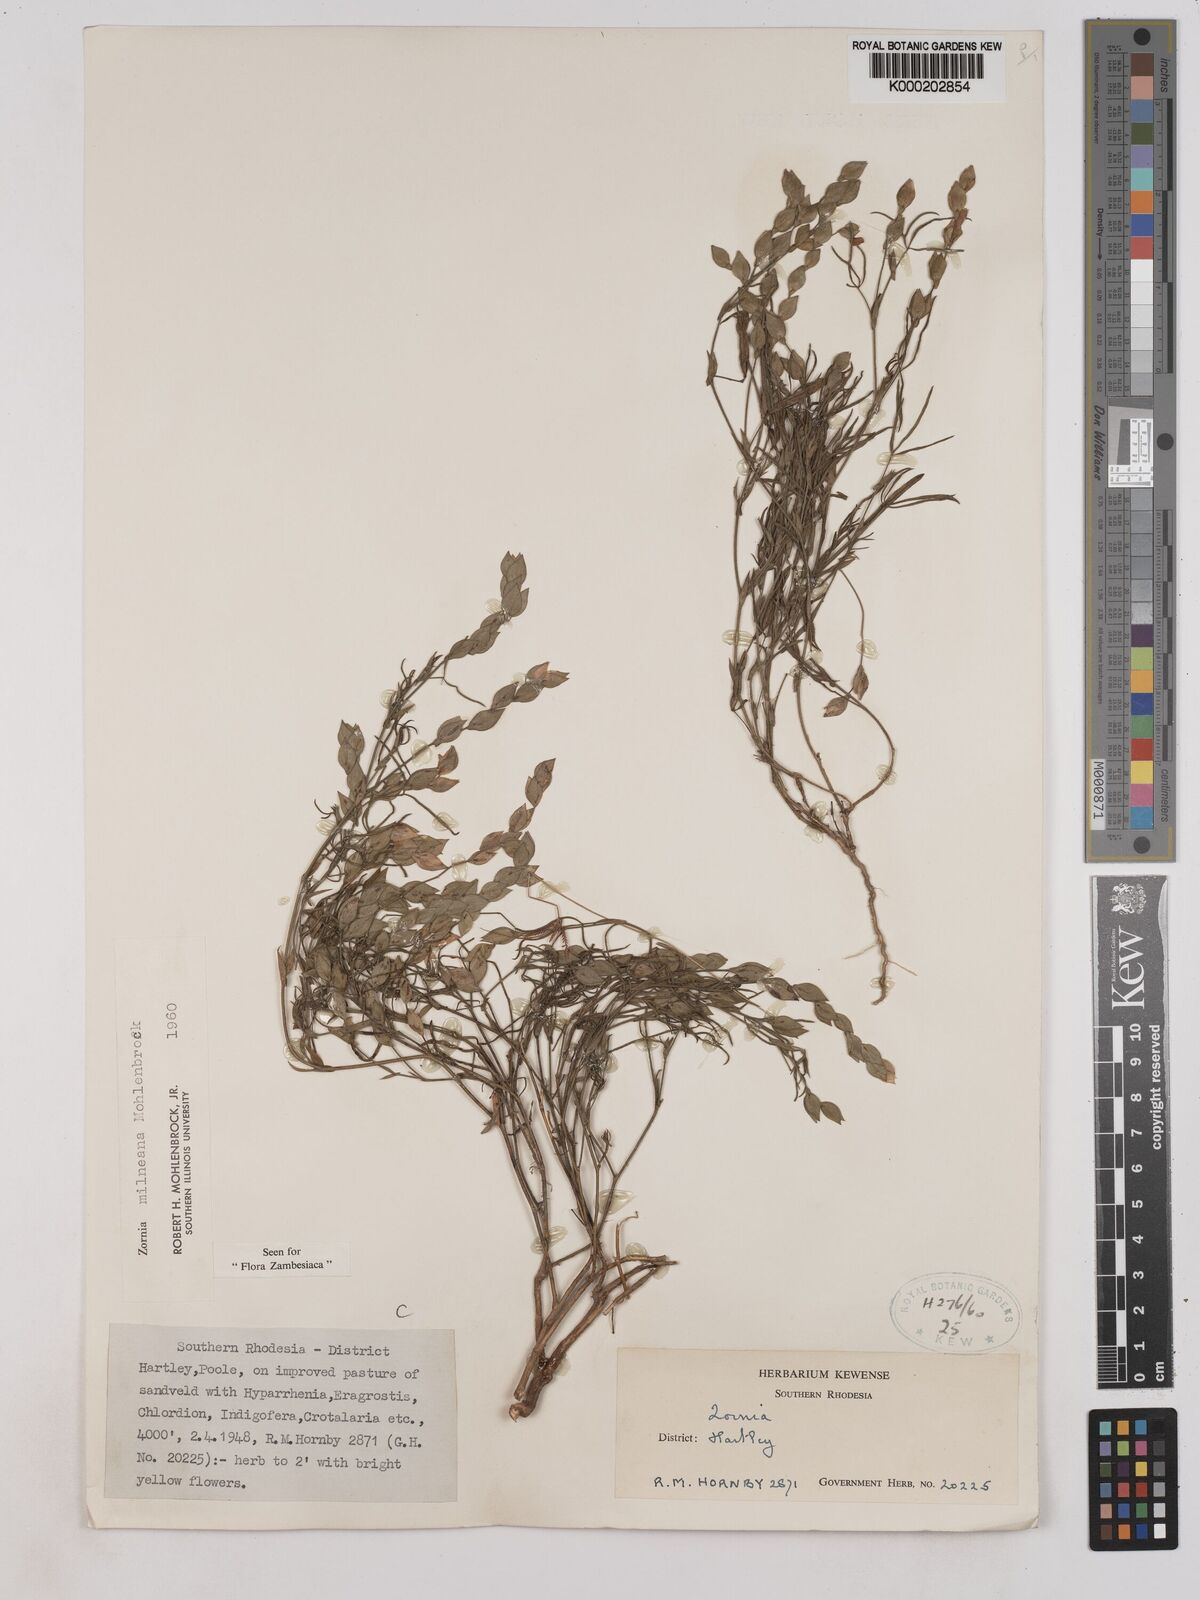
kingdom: Plantae
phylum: Tracheophyta
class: Magnoliopsida
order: Fabales
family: Fabaceae
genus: Zornia
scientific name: Zornia milneana
